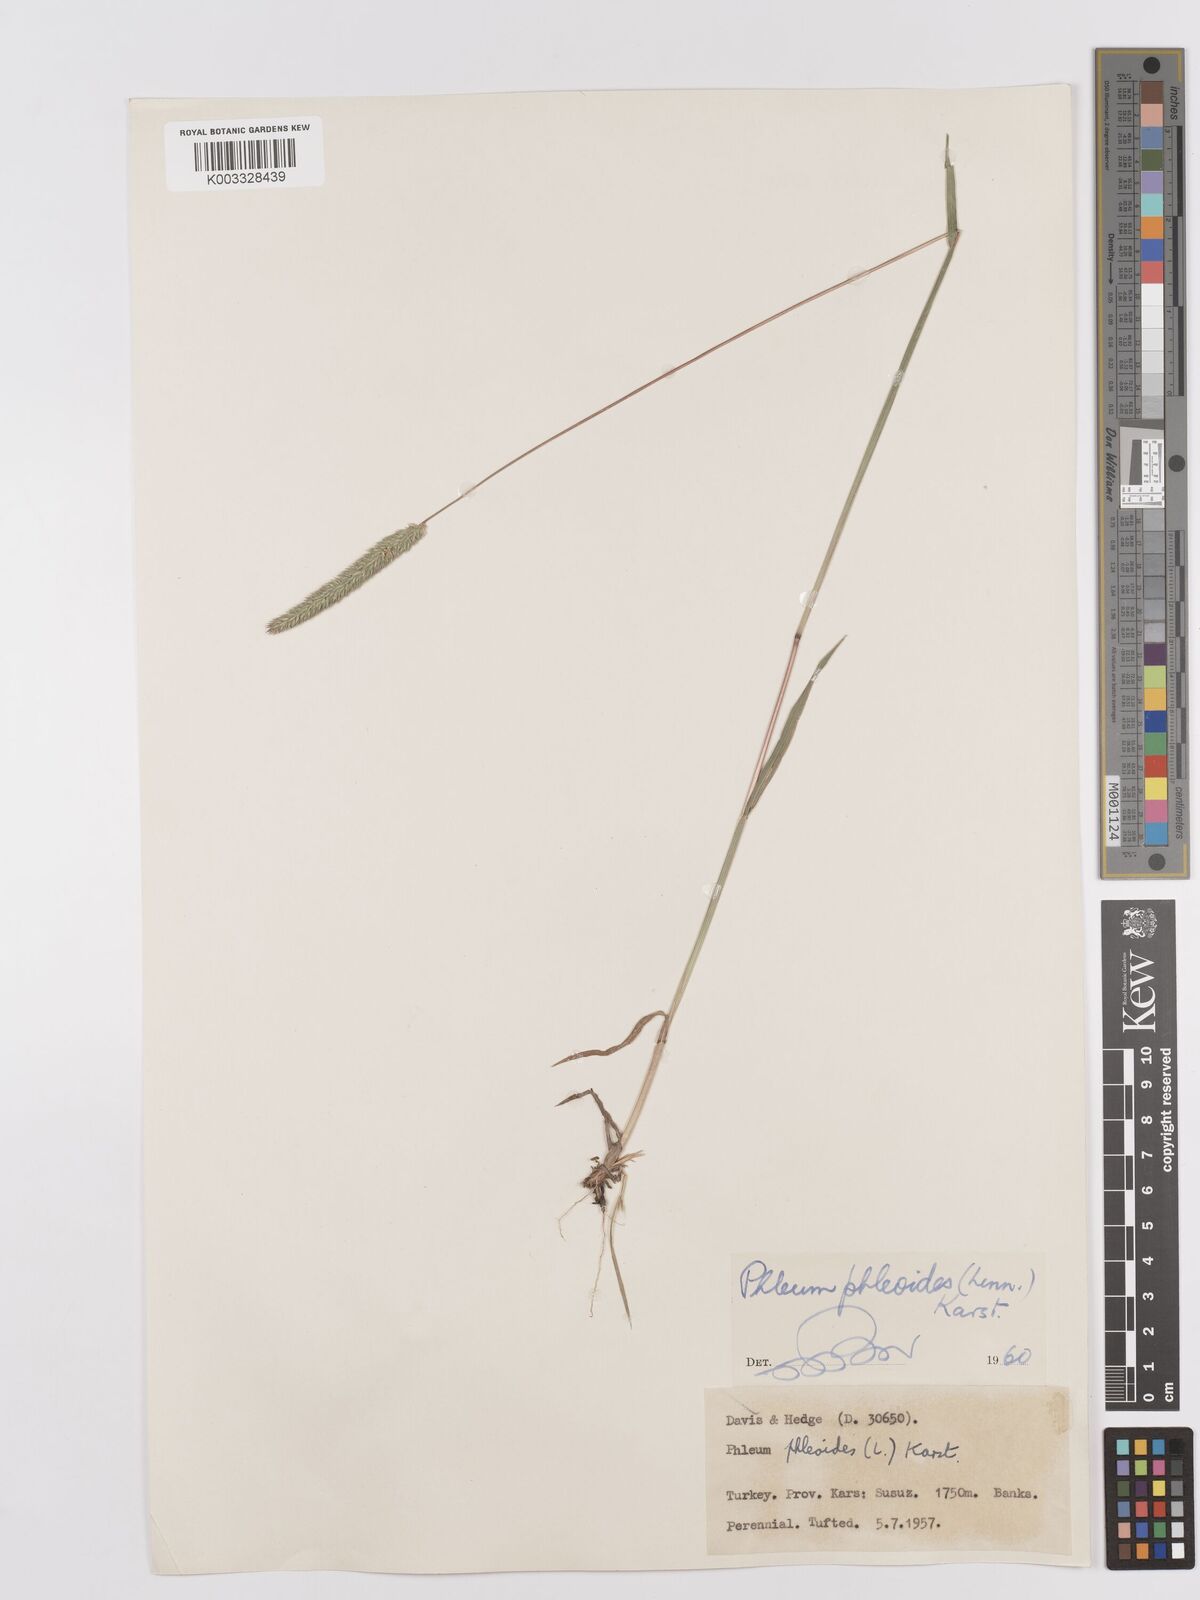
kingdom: Plantae
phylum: Tracheophyta
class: Liliopsida
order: Poales
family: Poaceae
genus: Phleum
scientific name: Phleum phleoides
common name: Purple-stem cat's-tail
